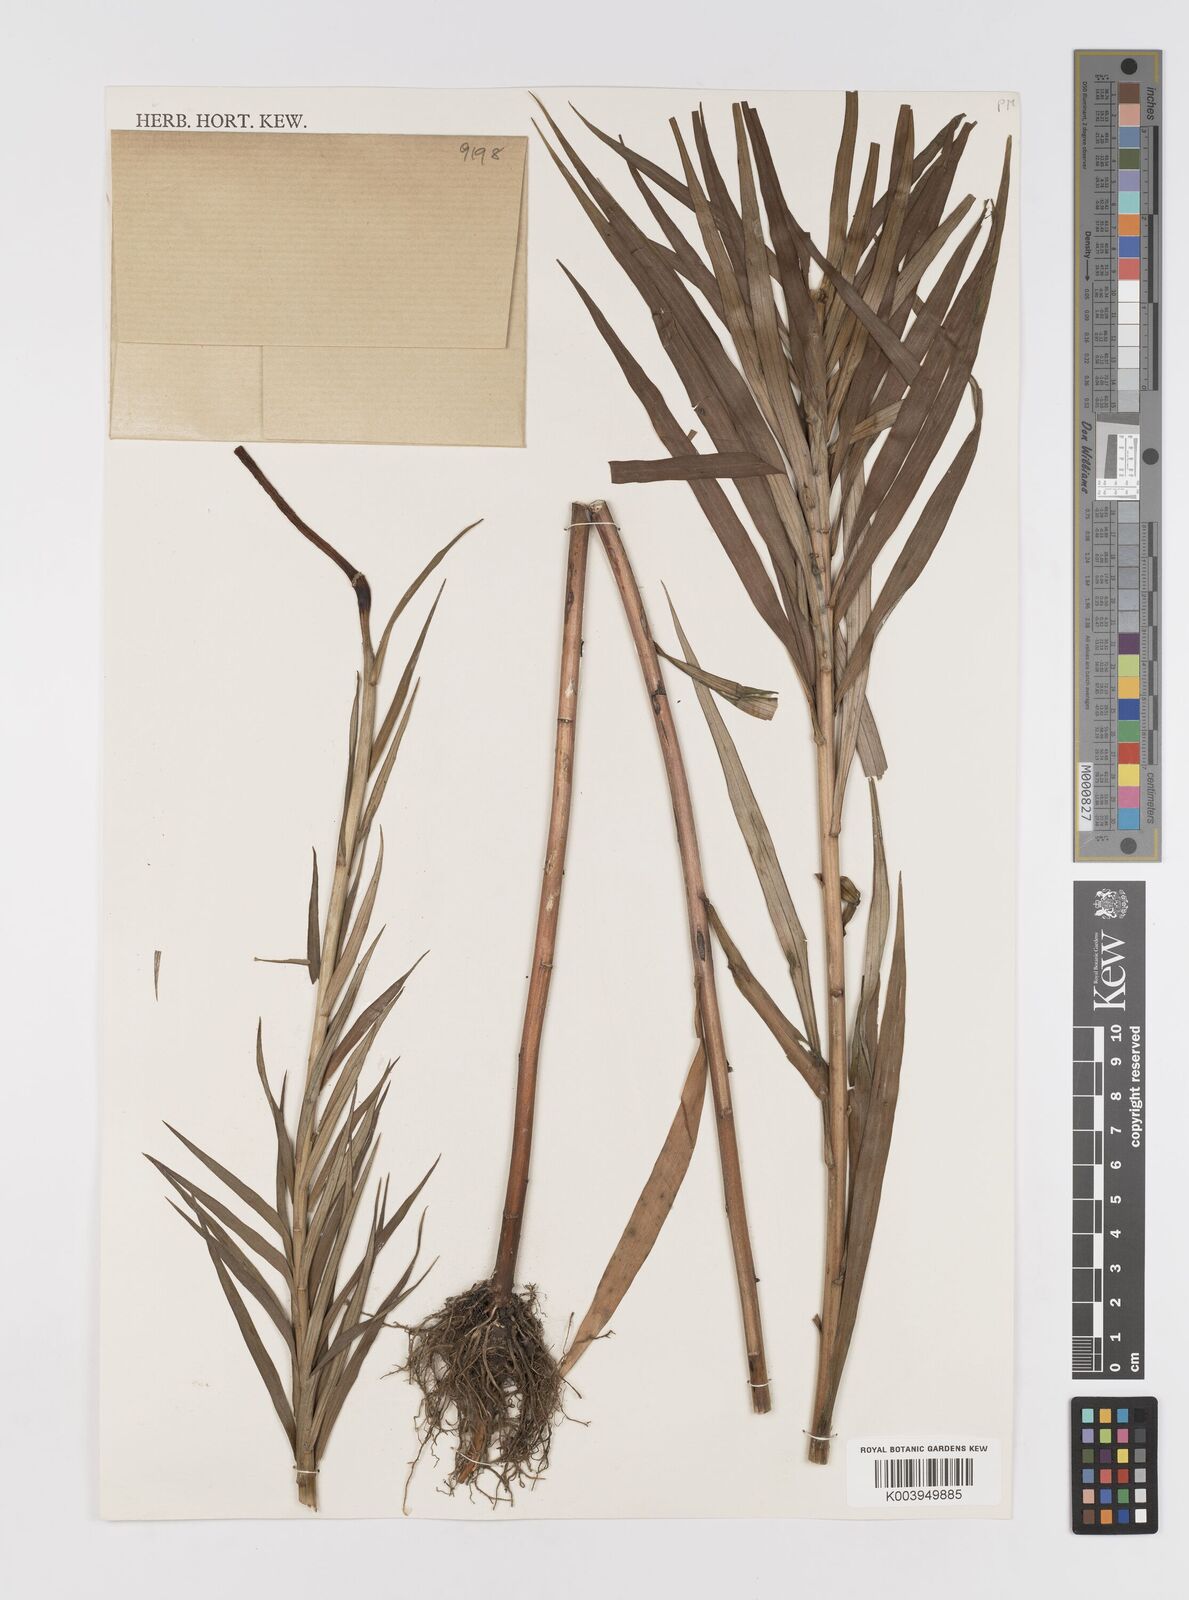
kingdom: Plantae
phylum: Tracheophyta
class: Liliopsida
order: Liliales
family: Liliaceae
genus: Lilium
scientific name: Lilium formosanum
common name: Formosa lily
